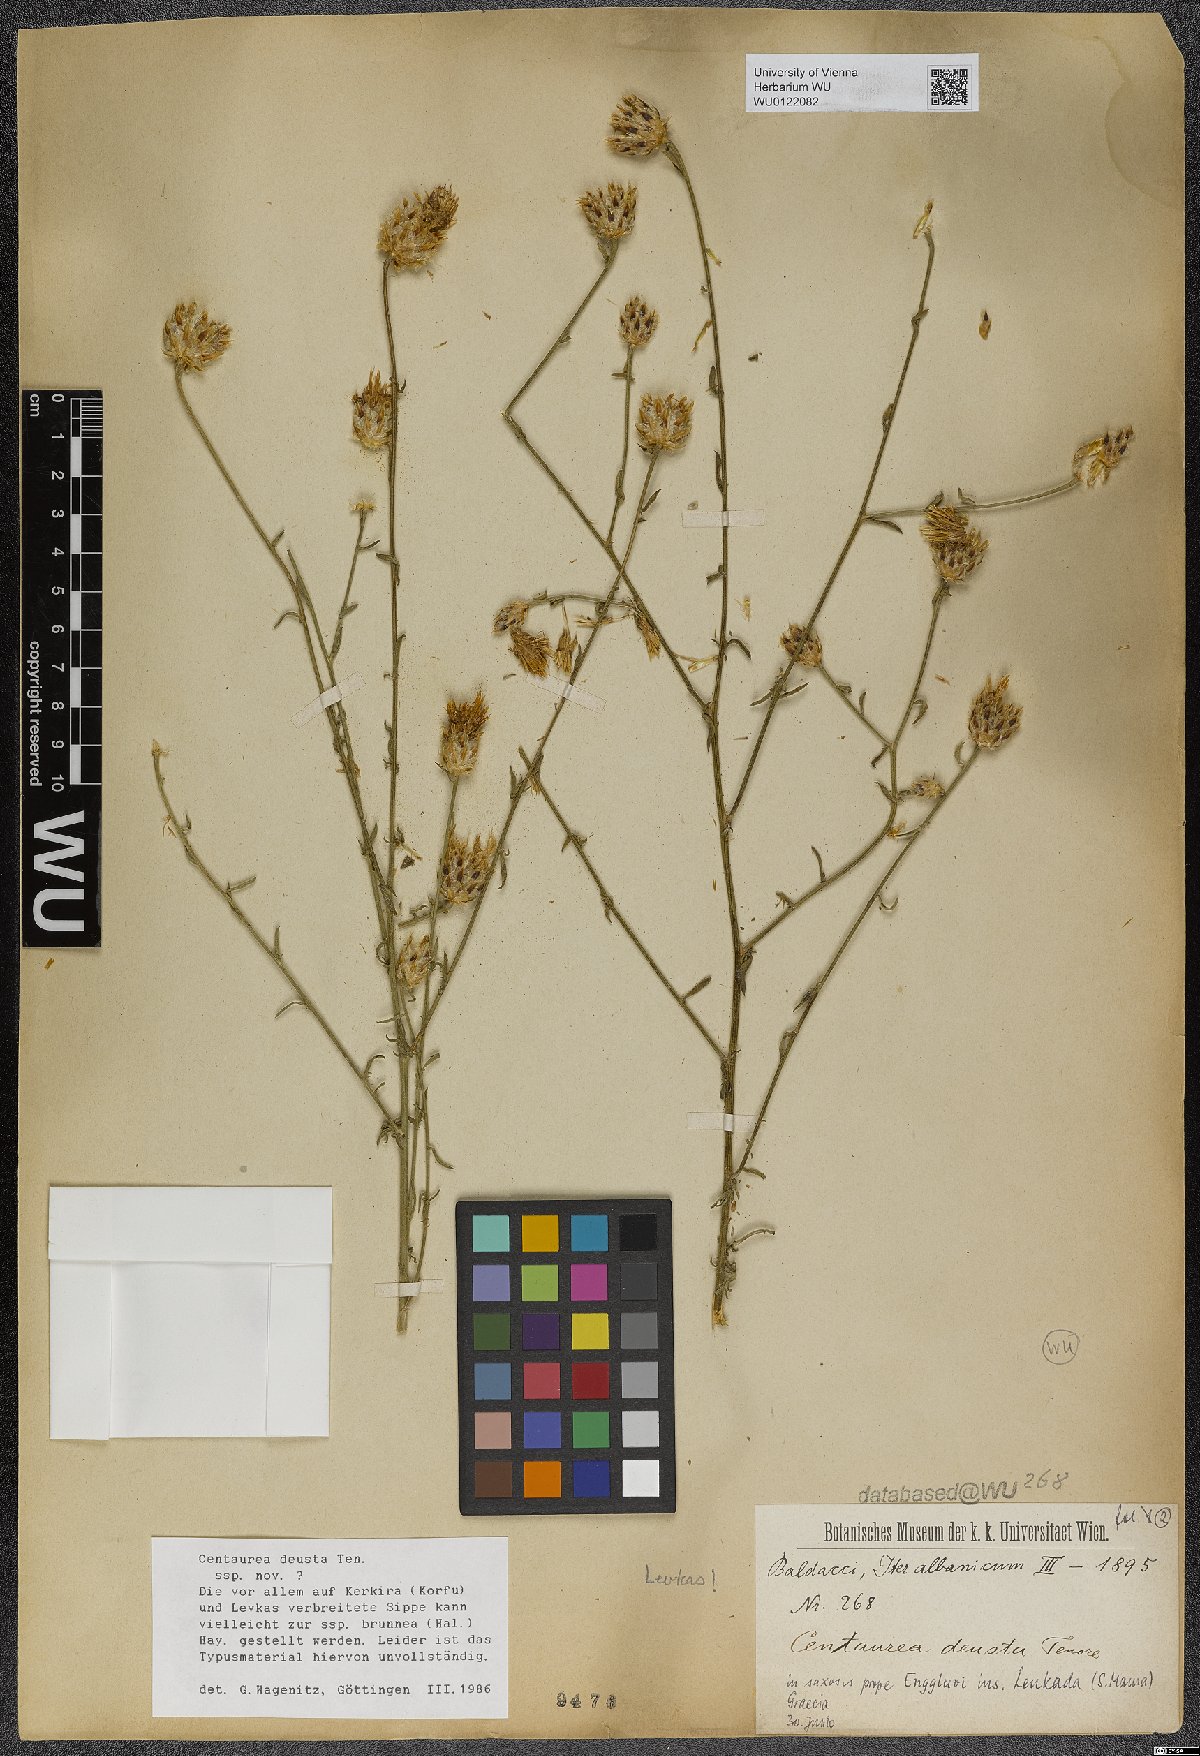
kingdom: Plantae
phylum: Tracheophyta
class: Magnoliopsida
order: Asterales
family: Asteraceae
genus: Centaurea
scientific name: Centaurea deusta
